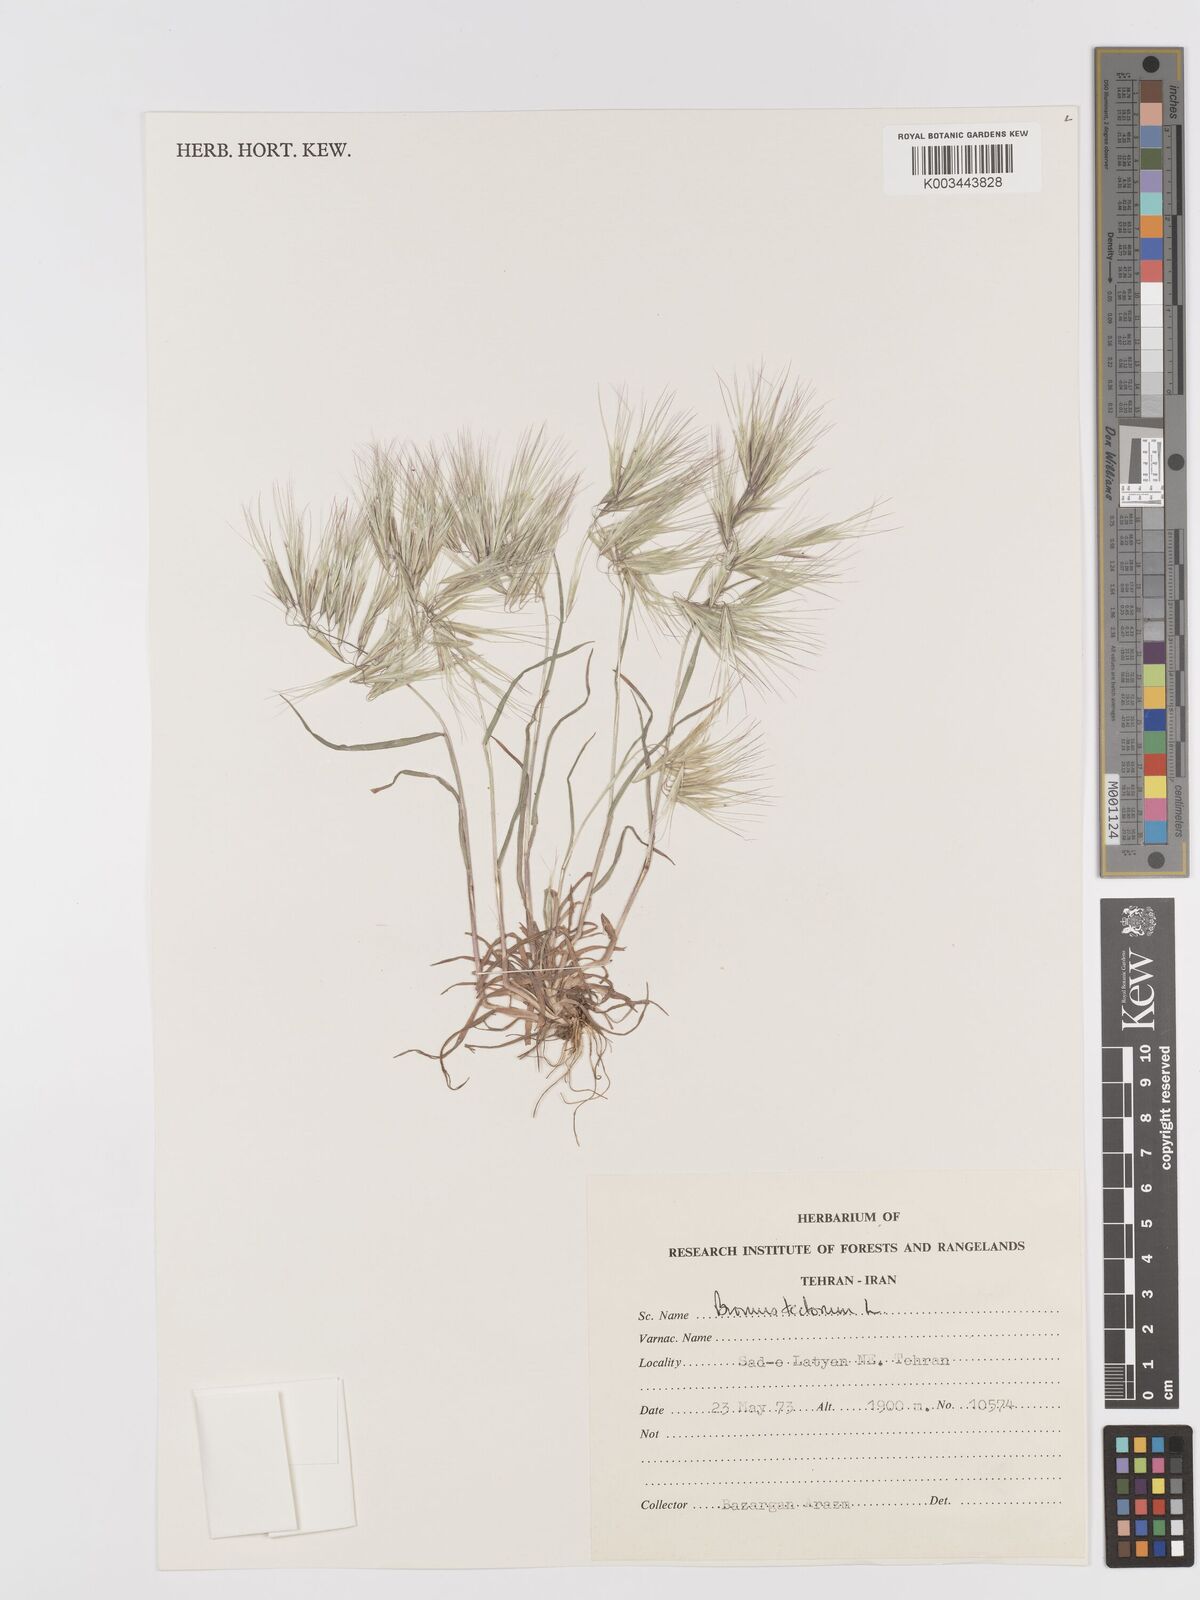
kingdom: Plantae
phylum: Tracheophyta
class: Liliopsida
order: Poales
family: Poaceae
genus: Bromus
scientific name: Bromus tectorum
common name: Cheatgrass
